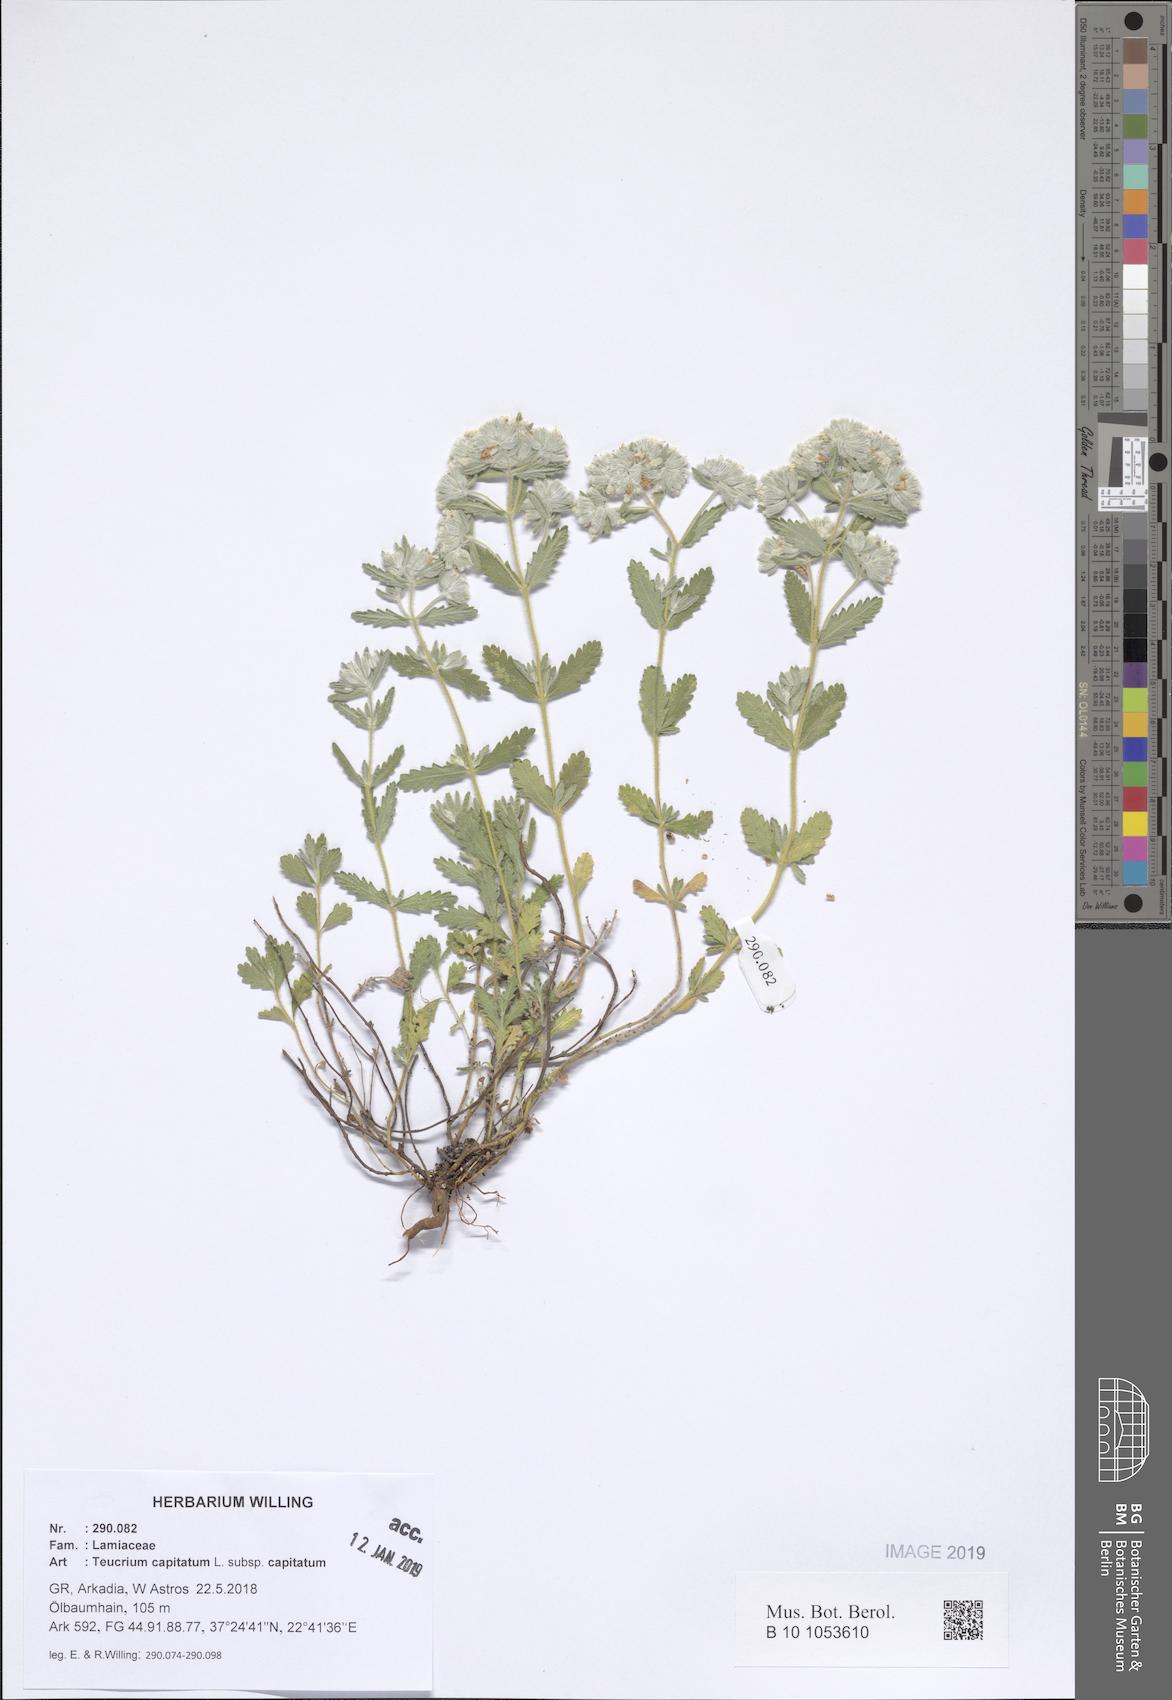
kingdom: Plantae
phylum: Tracheophyta
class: Magnoliopsida
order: Lamiales
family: Lamiaceae
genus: Teucrium
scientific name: Teucrium capitatum
